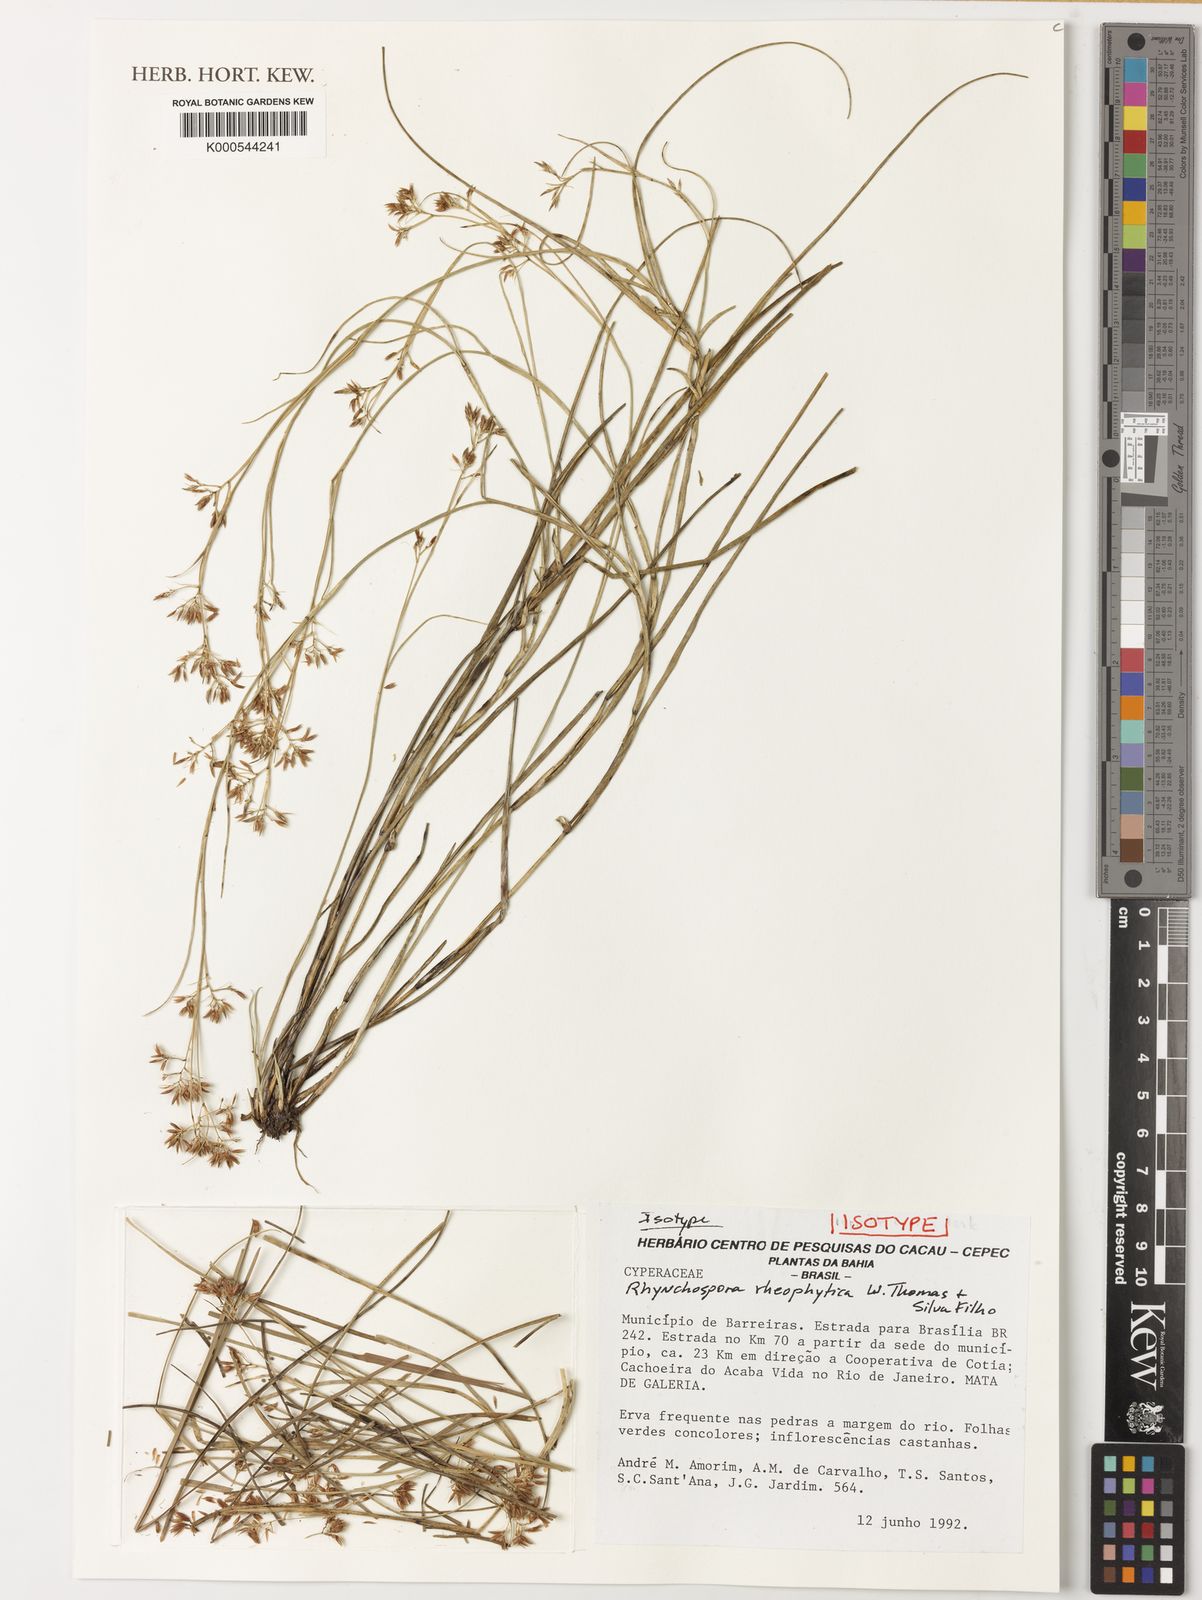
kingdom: Plantae
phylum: Tracheophyta
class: Liliopsida
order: Poales
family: Cyperaceae
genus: Rhynchospora
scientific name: Rhynchospora
